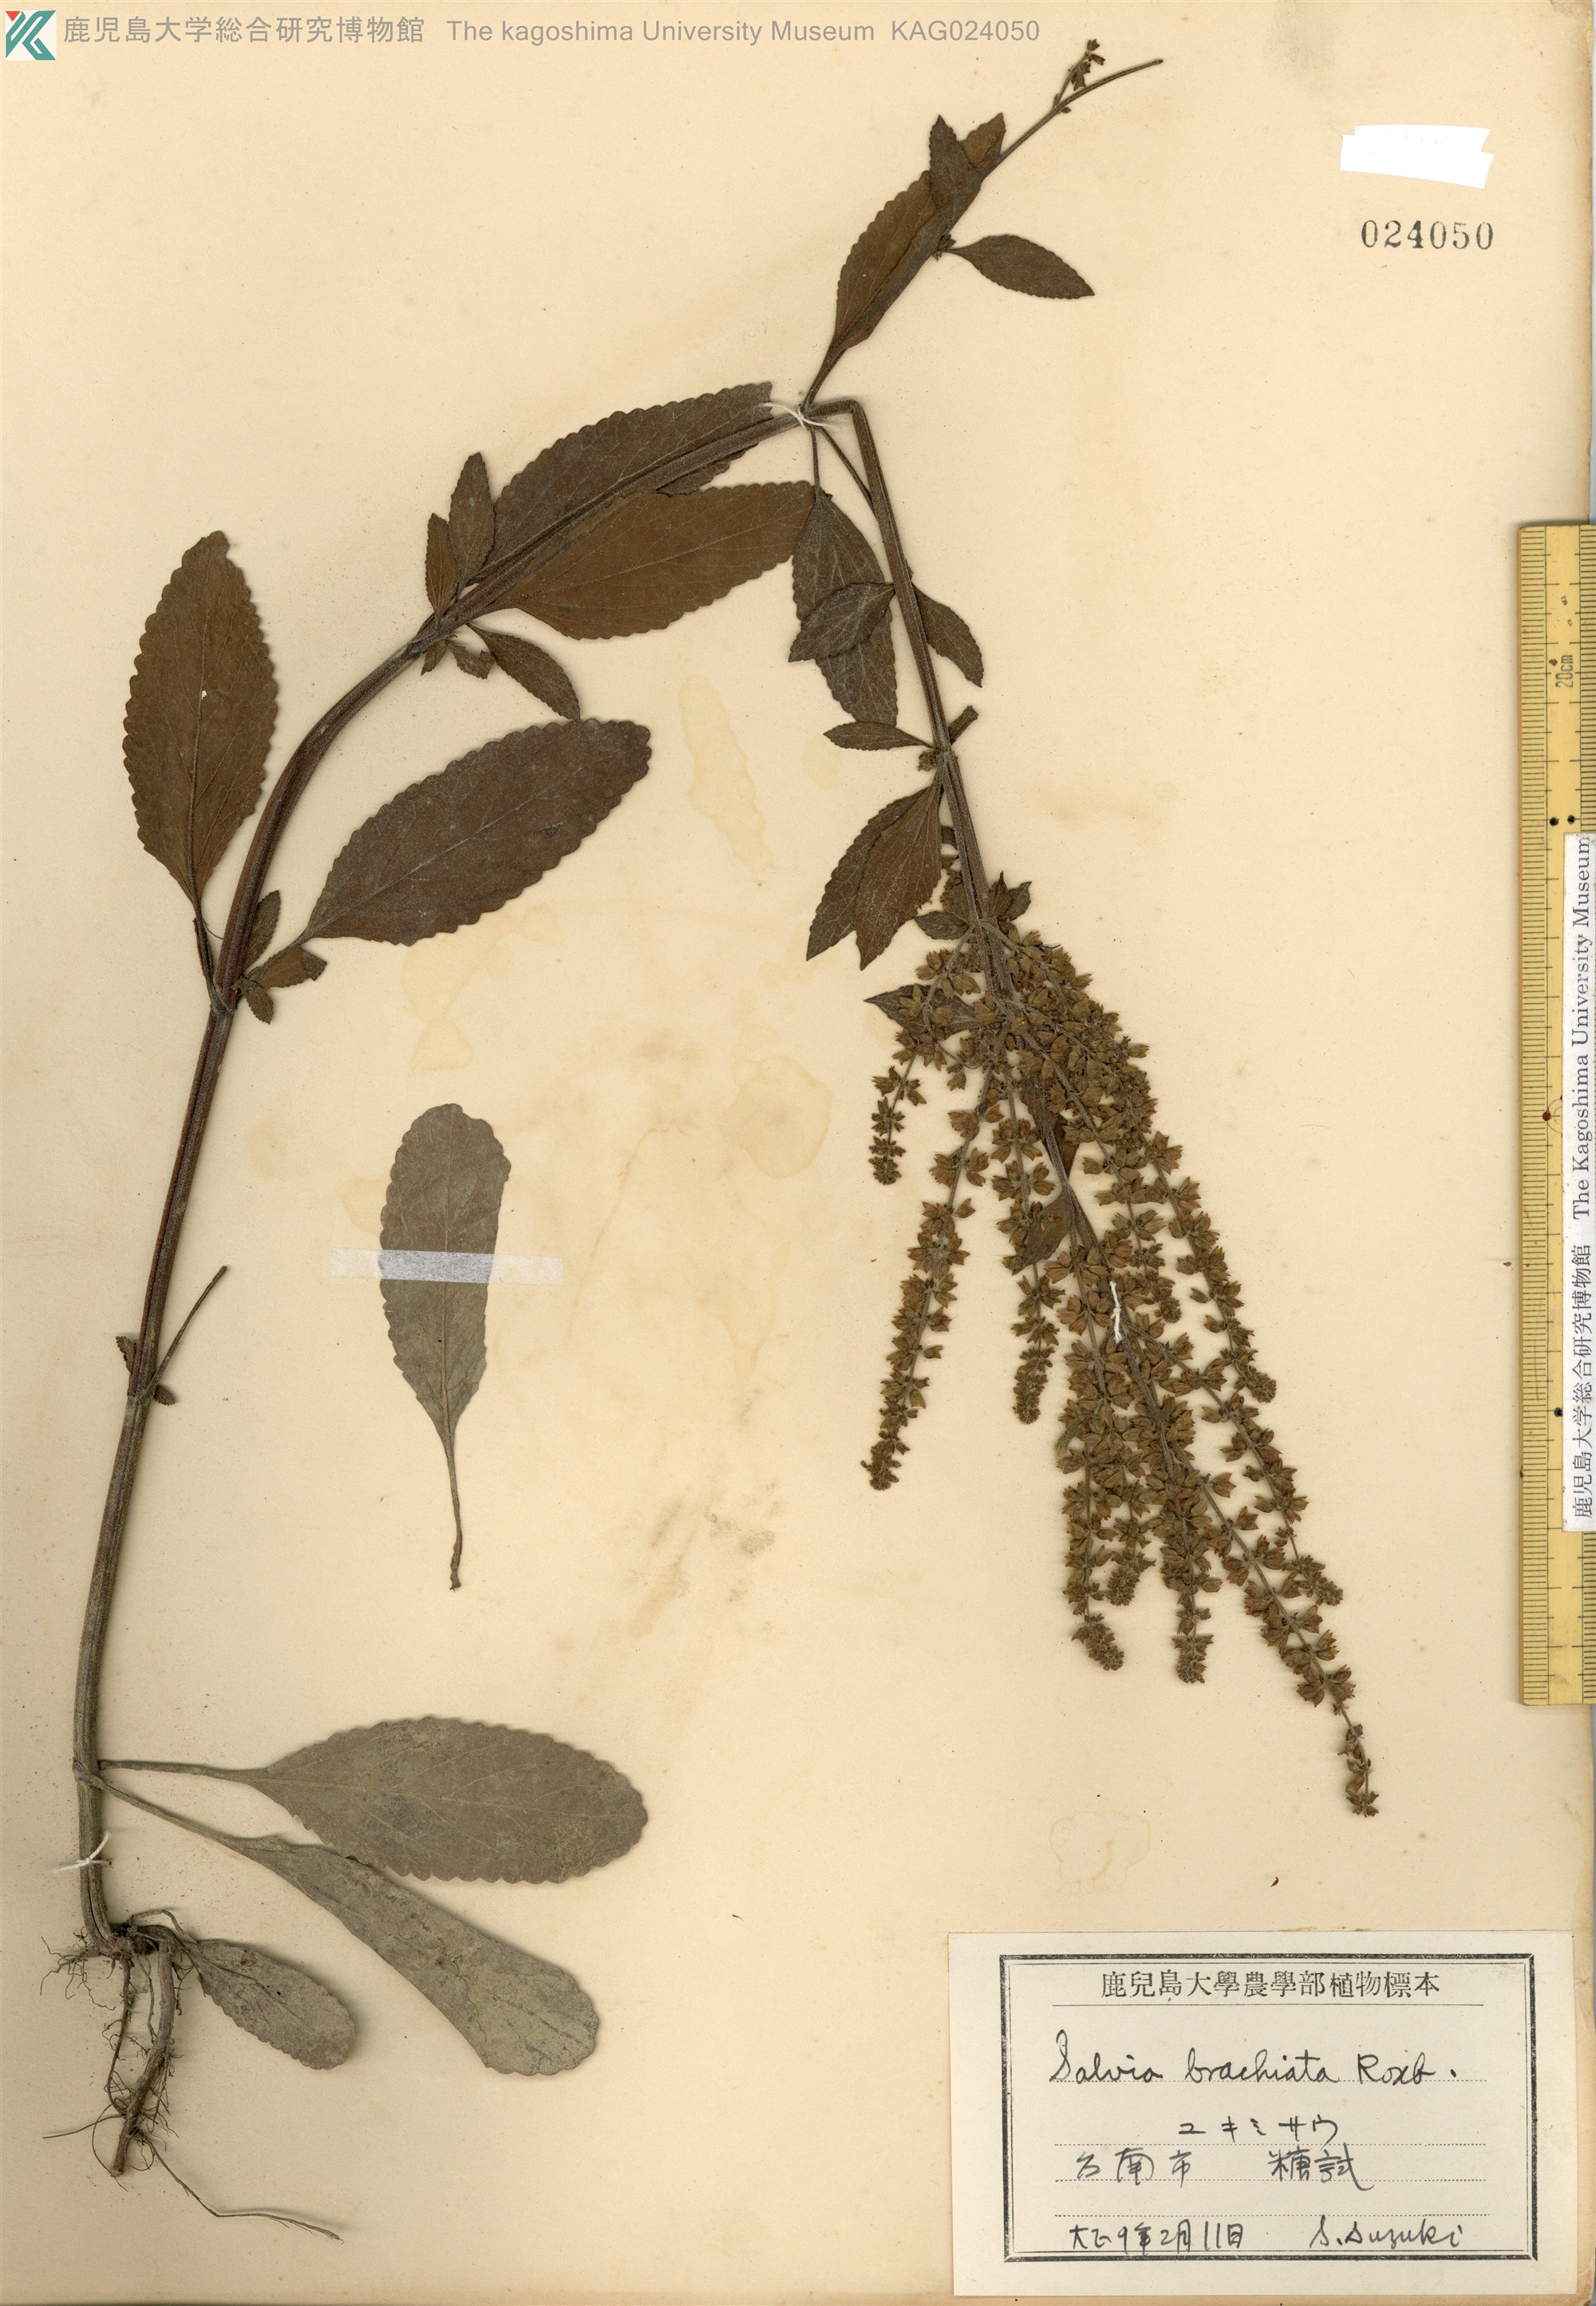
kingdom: Plantae
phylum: Tracheophyta
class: Magnoliopsida
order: Lamiales
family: Lamiaceae
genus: Salvia
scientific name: Salvia plebeia
